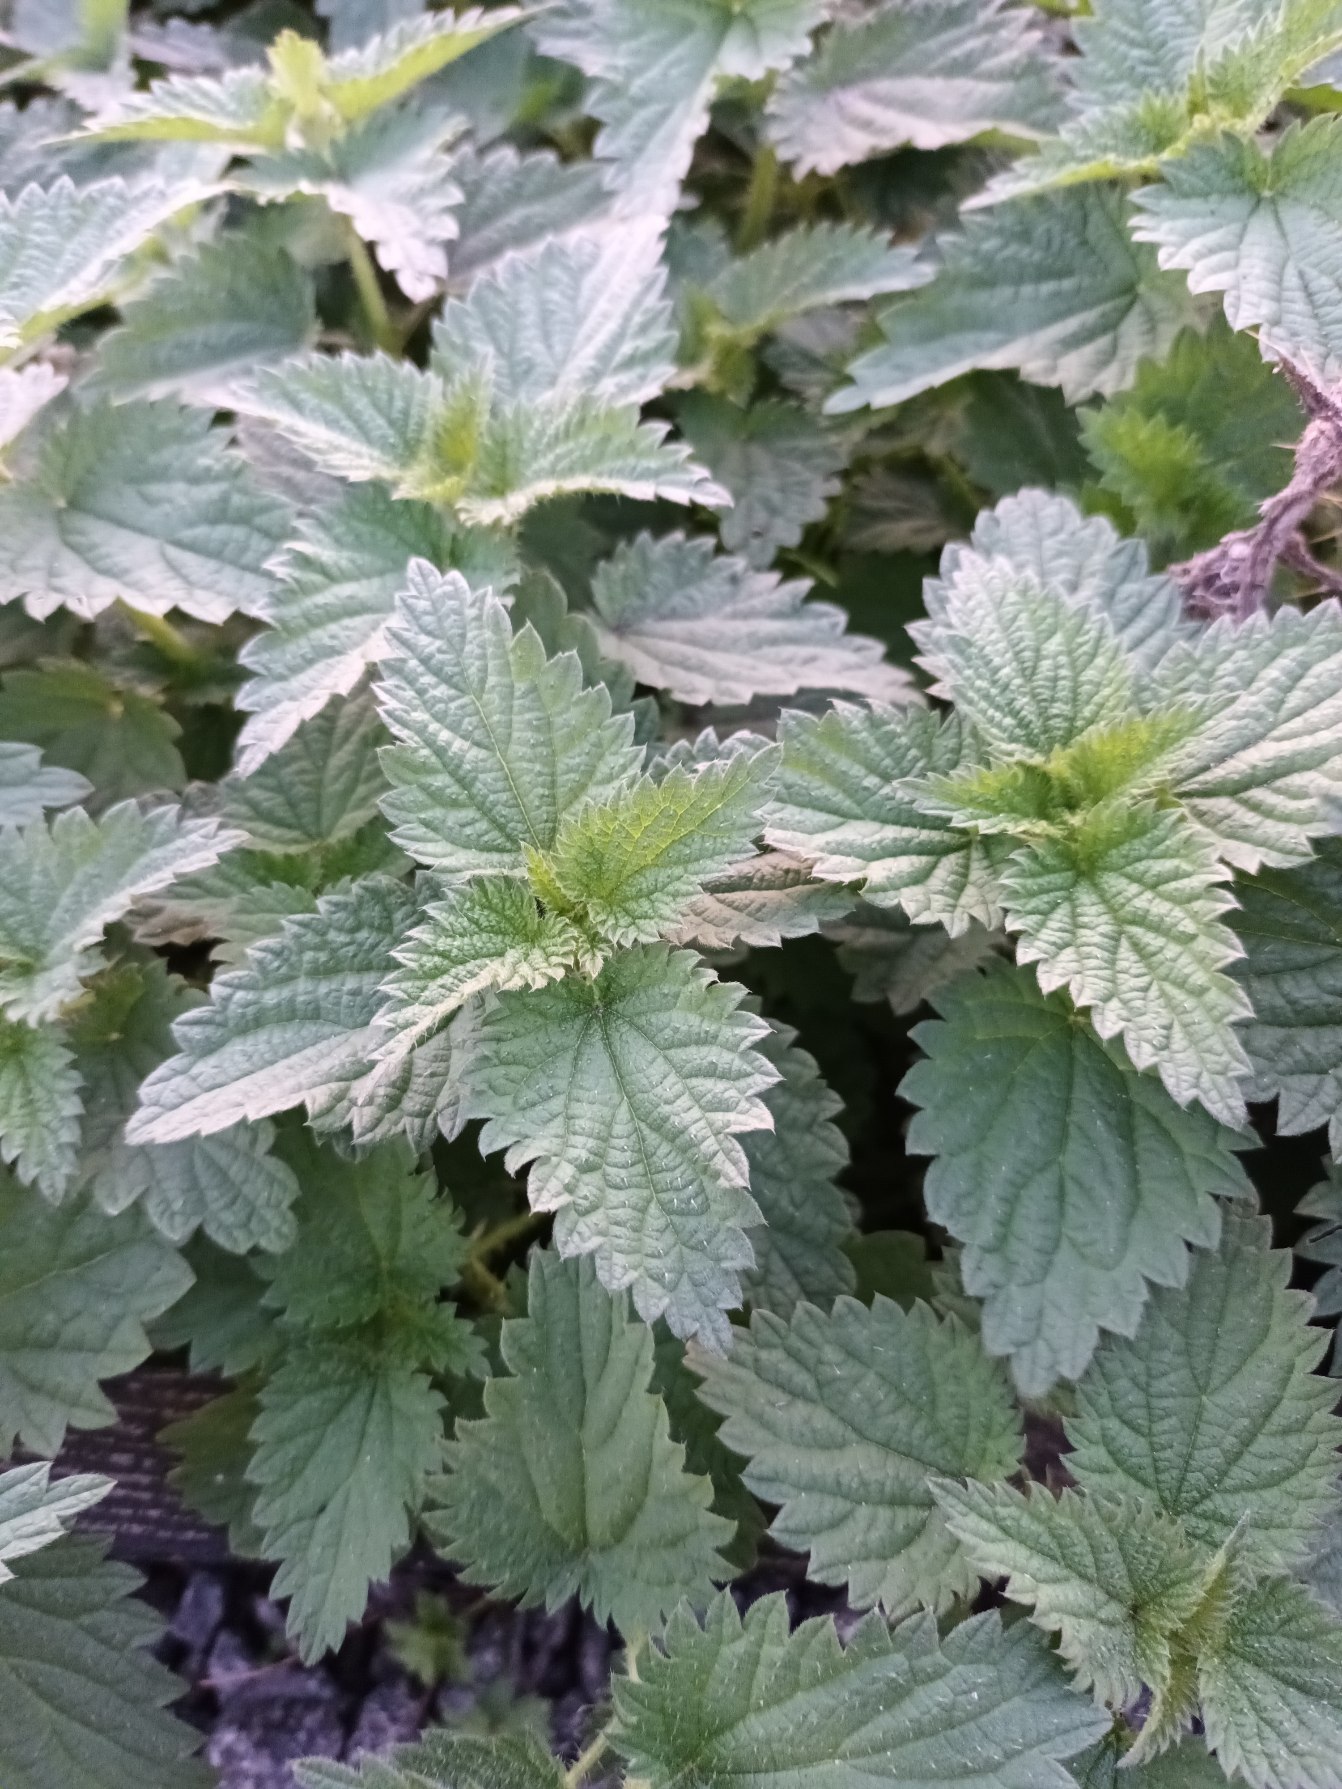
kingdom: Plantae
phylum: Tracheophyta
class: Magnoliopsida
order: Rosales
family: Urticaceae
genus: Urtica
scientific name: Urtica dioica
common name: Stor nælde
